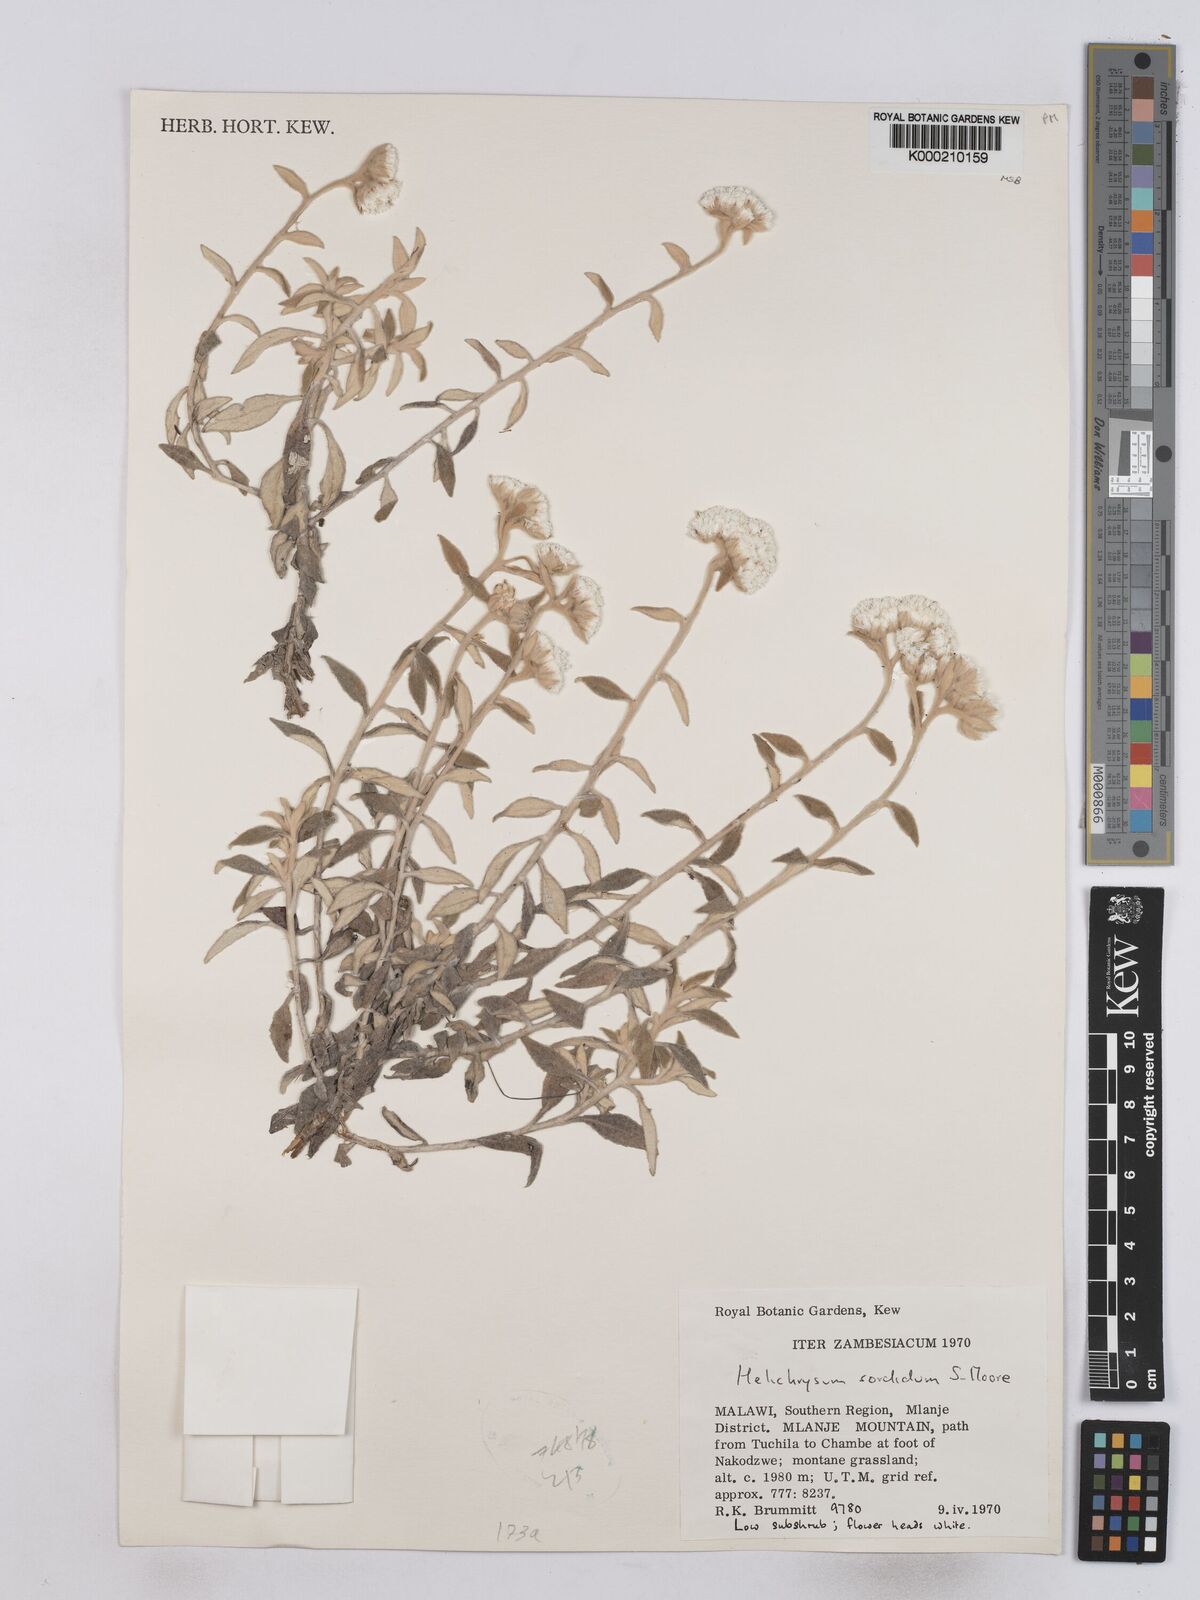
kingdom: Plantae
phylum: Tracheophyta
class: Magnoliopsida
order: Asterales
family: Asteraceae
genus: Helichrysum
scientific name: Helichrysum
